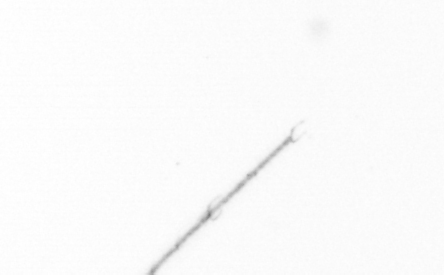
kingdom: Chromista
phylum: Ochrophyta
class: Bacillariophyceae
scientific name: Bacillariophyceae
